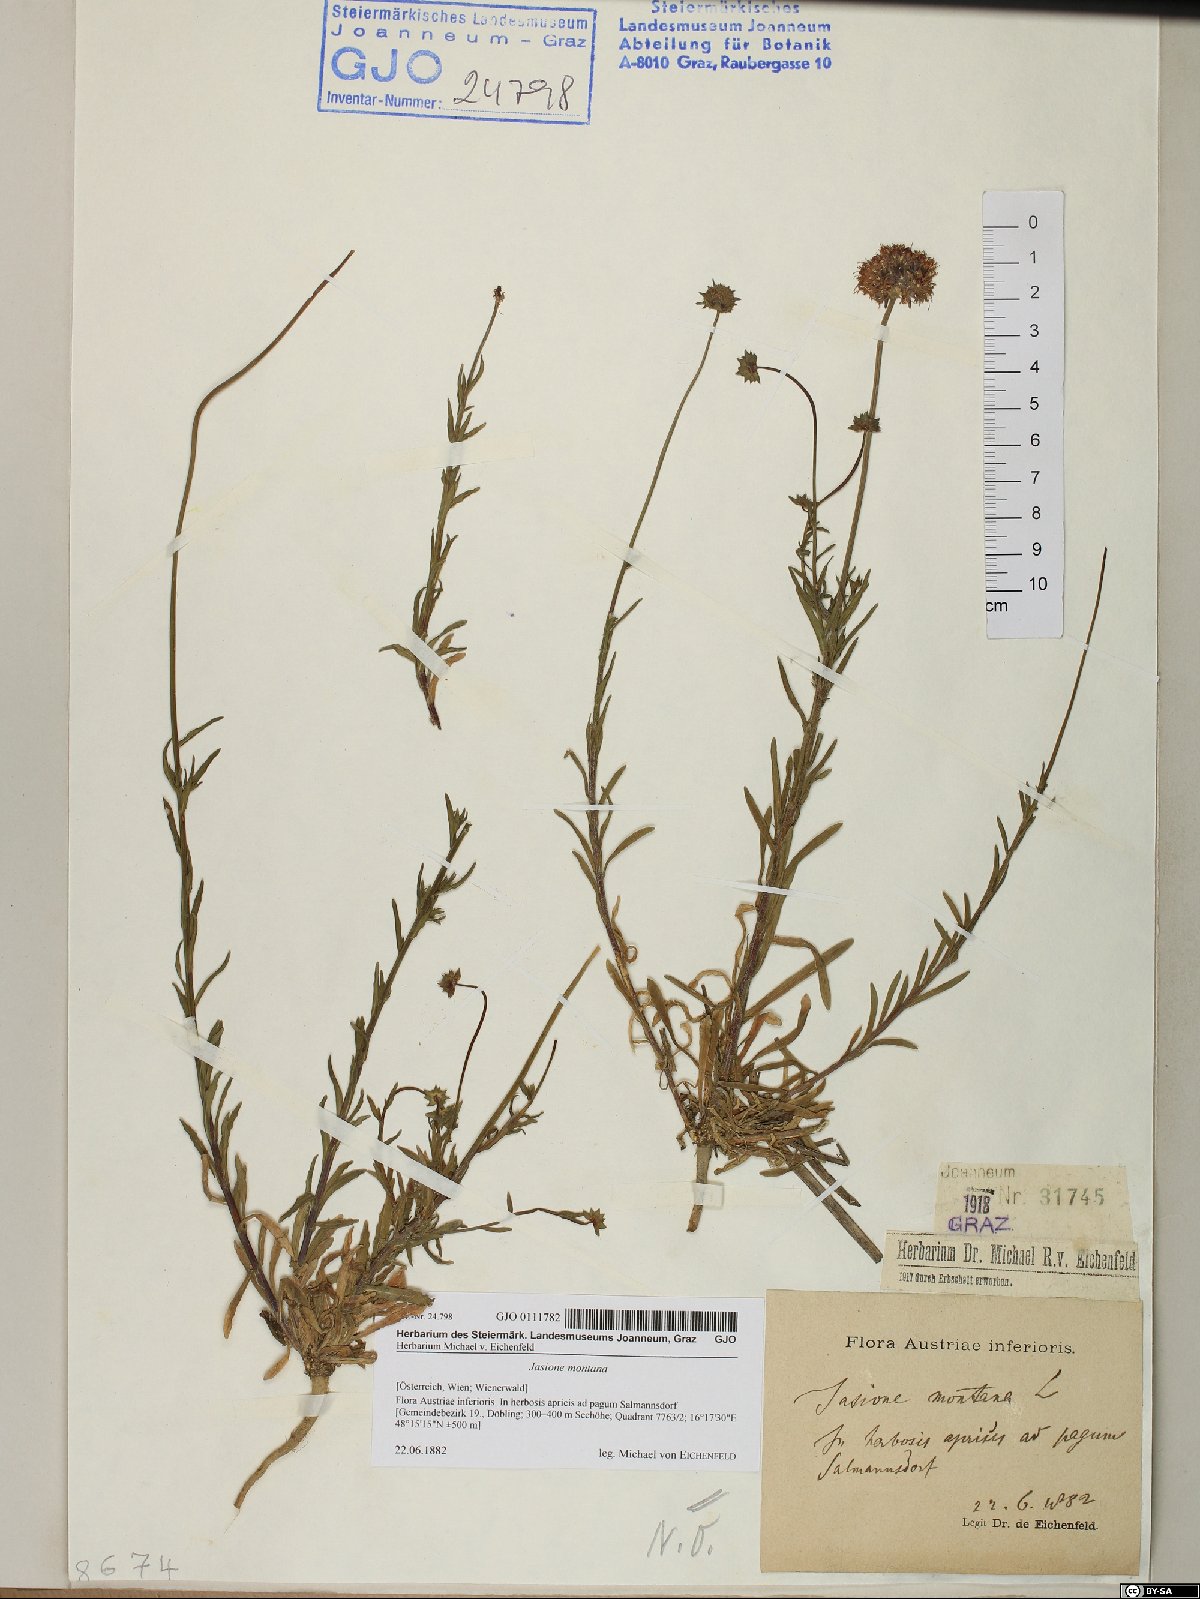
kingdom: Plantae
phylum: Tracheophyta
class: Magnoliopsida
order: Asterales
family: Campanulaceae
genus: Jasione
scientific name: Jasione montana
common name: Sheep's-bit
